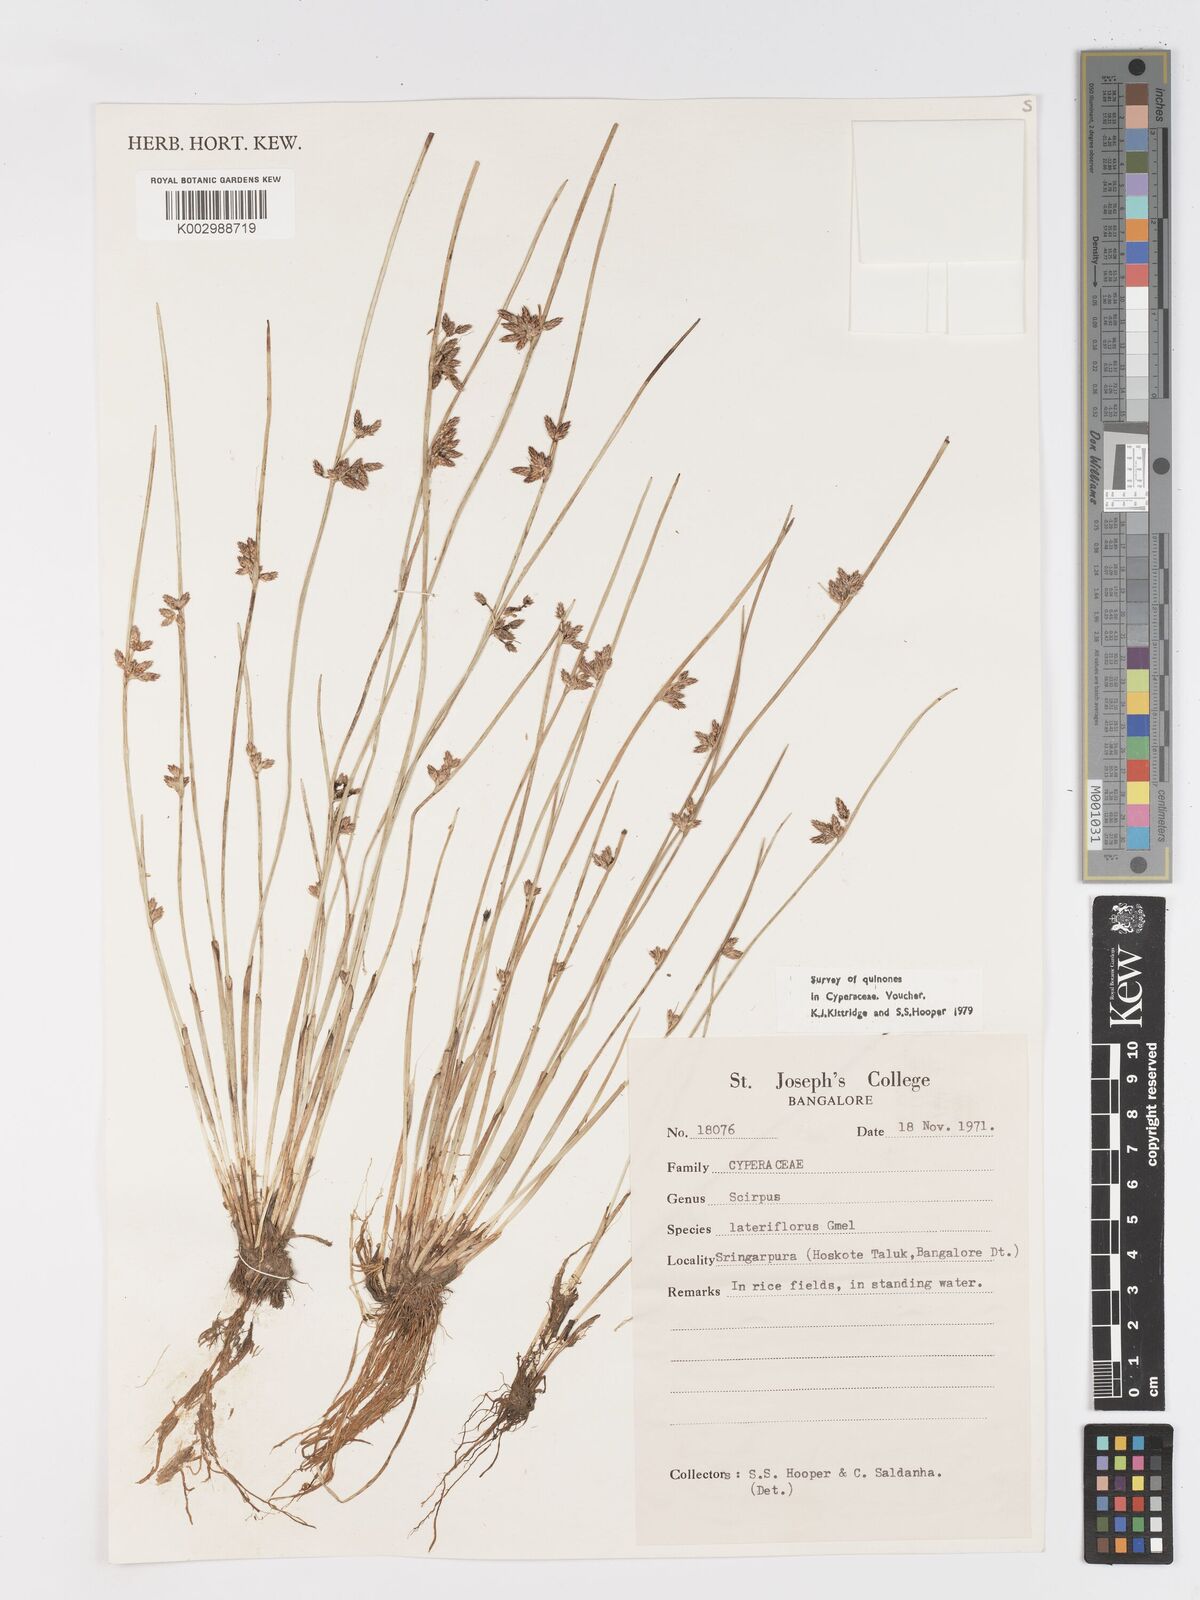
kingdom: Plantae
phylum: Tracheophyta
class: Liliopsida
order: Poales
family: Cyperaceae
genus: Schoenoplectiella
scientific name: Schoenoplectiella lateriflora
